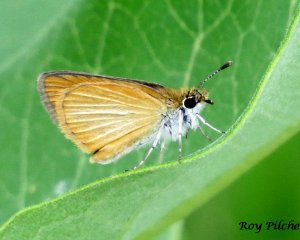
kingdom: Animalia
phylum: Arthropoda
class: Insecta
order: Lepidoptera
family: Hesperiidae
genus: Thymelicus
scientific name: Thymelicus lineola
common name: European Skipper
